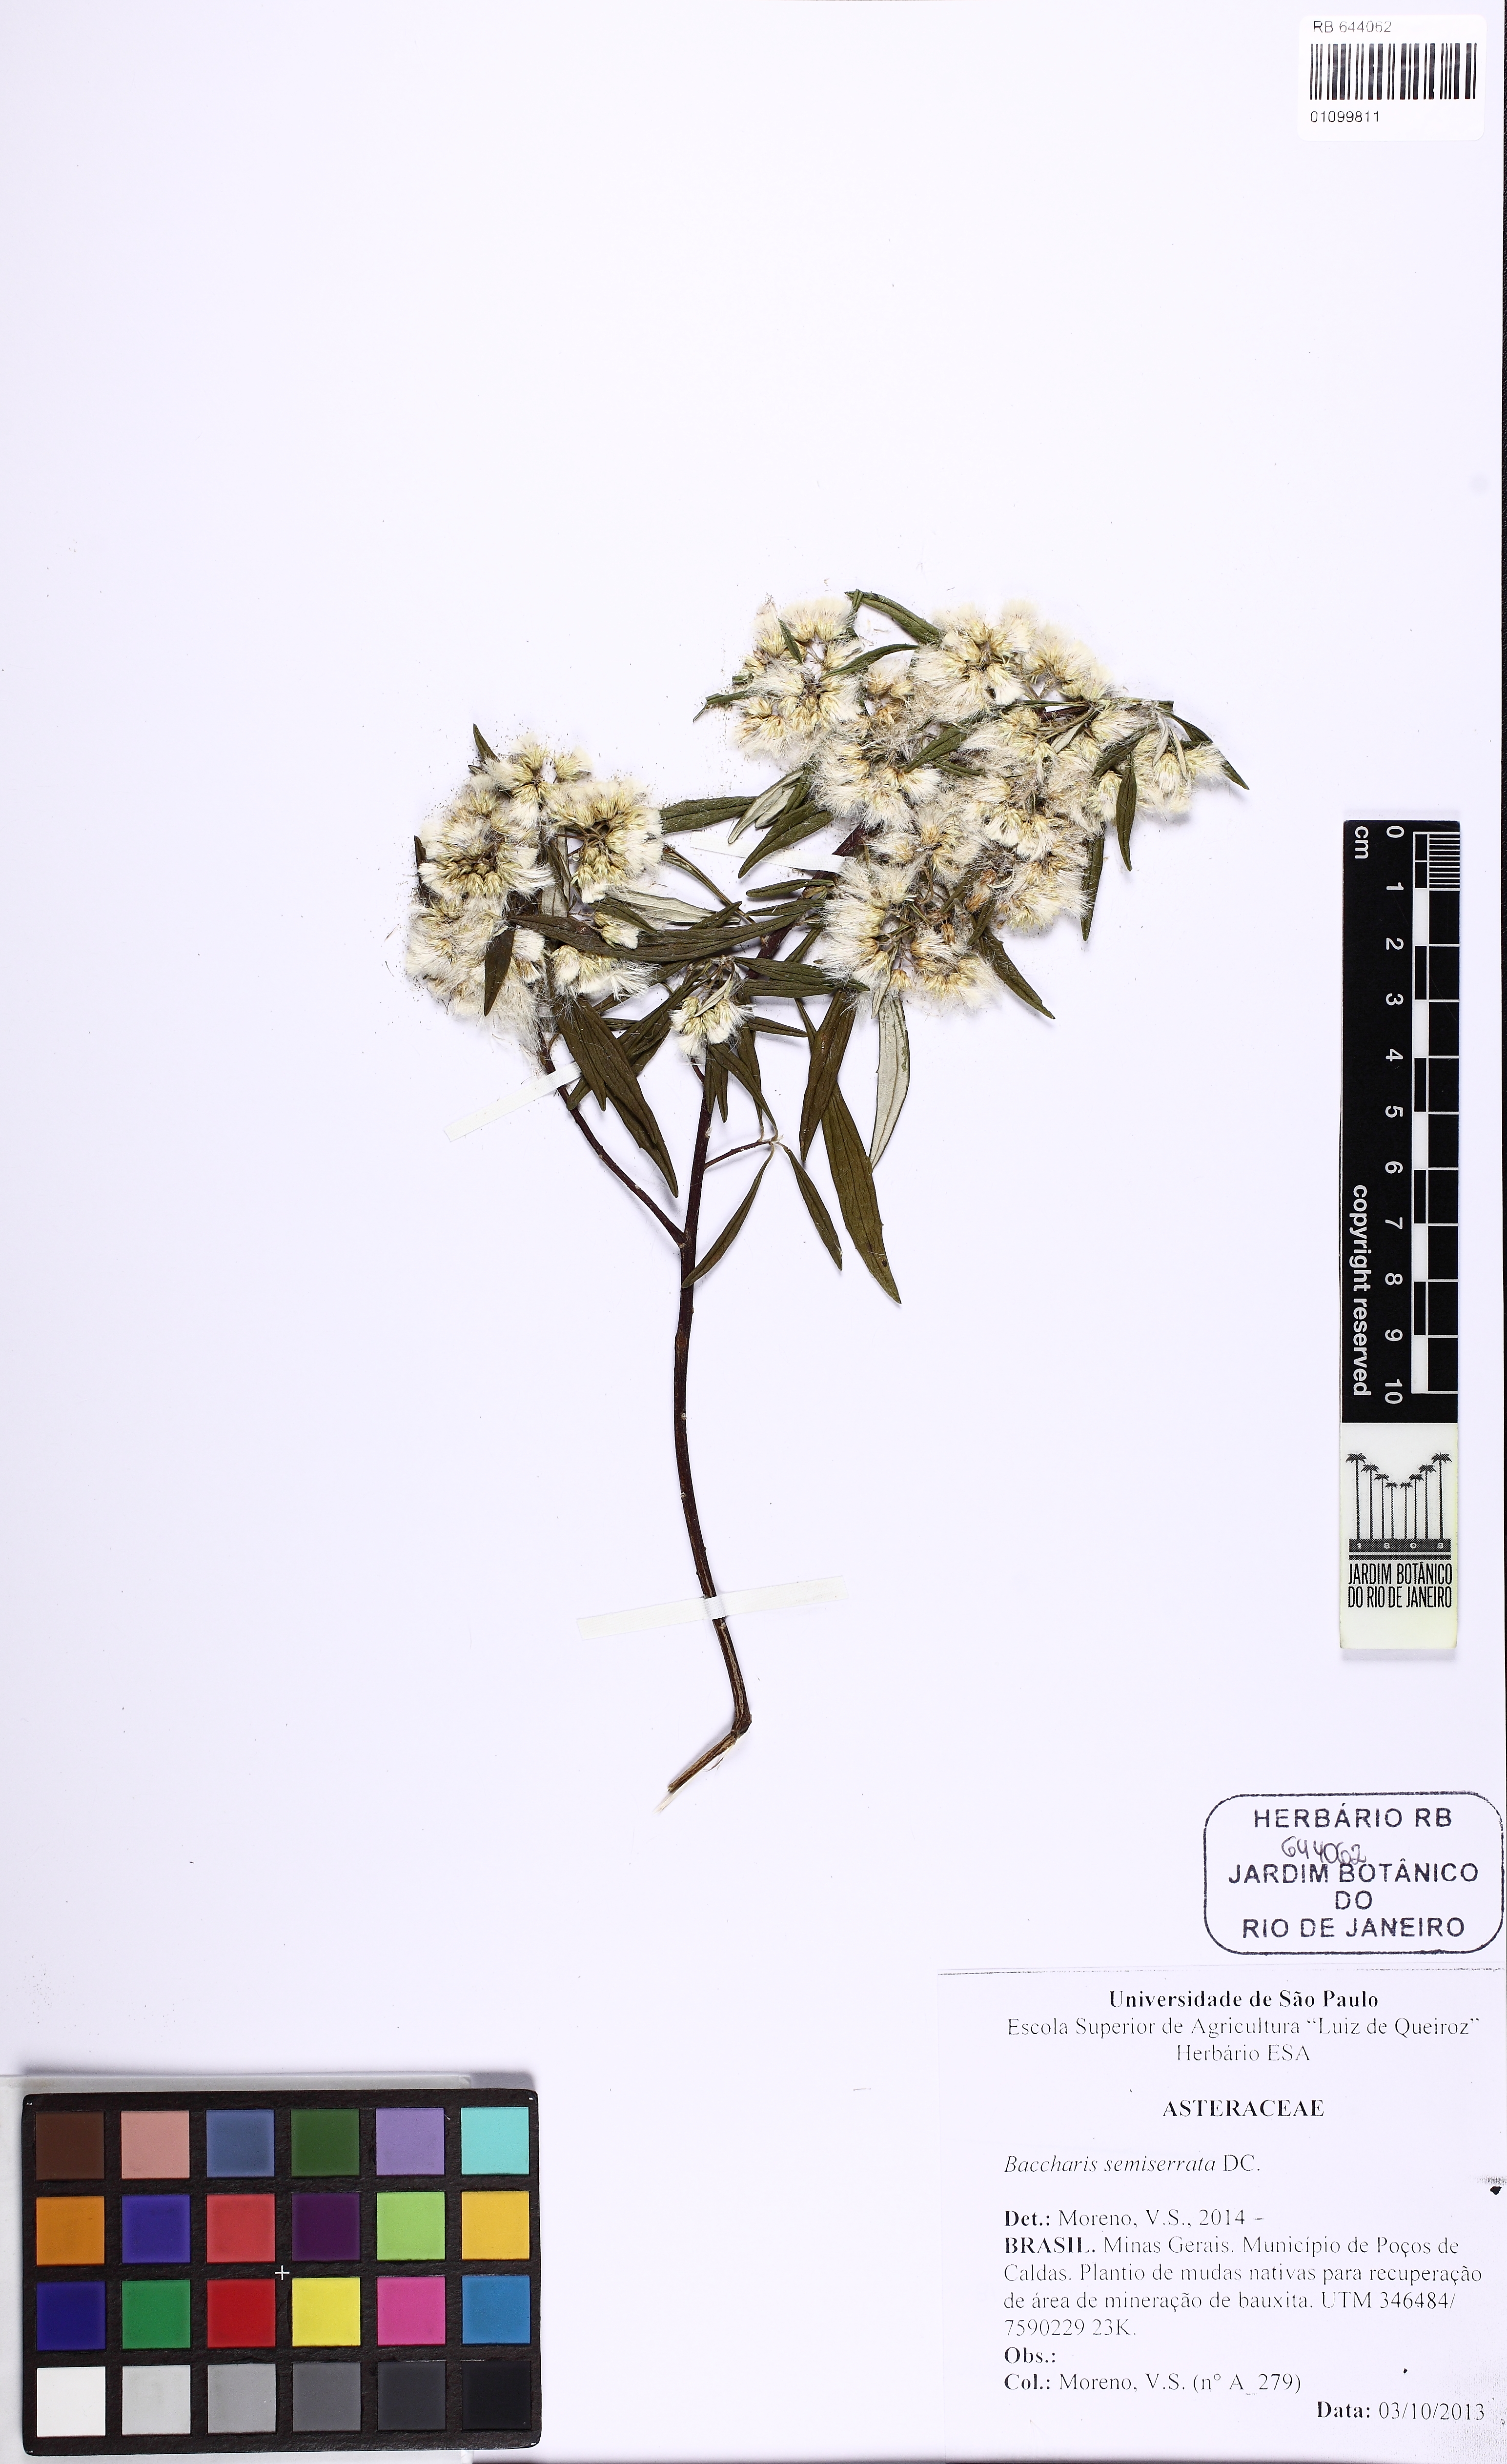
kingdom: Plantae
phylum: Tracheophyta
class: Magnoliopsida
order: Asterales
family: Asteraceae
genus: Baccharis
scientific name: Baccharis gnidiifolia
